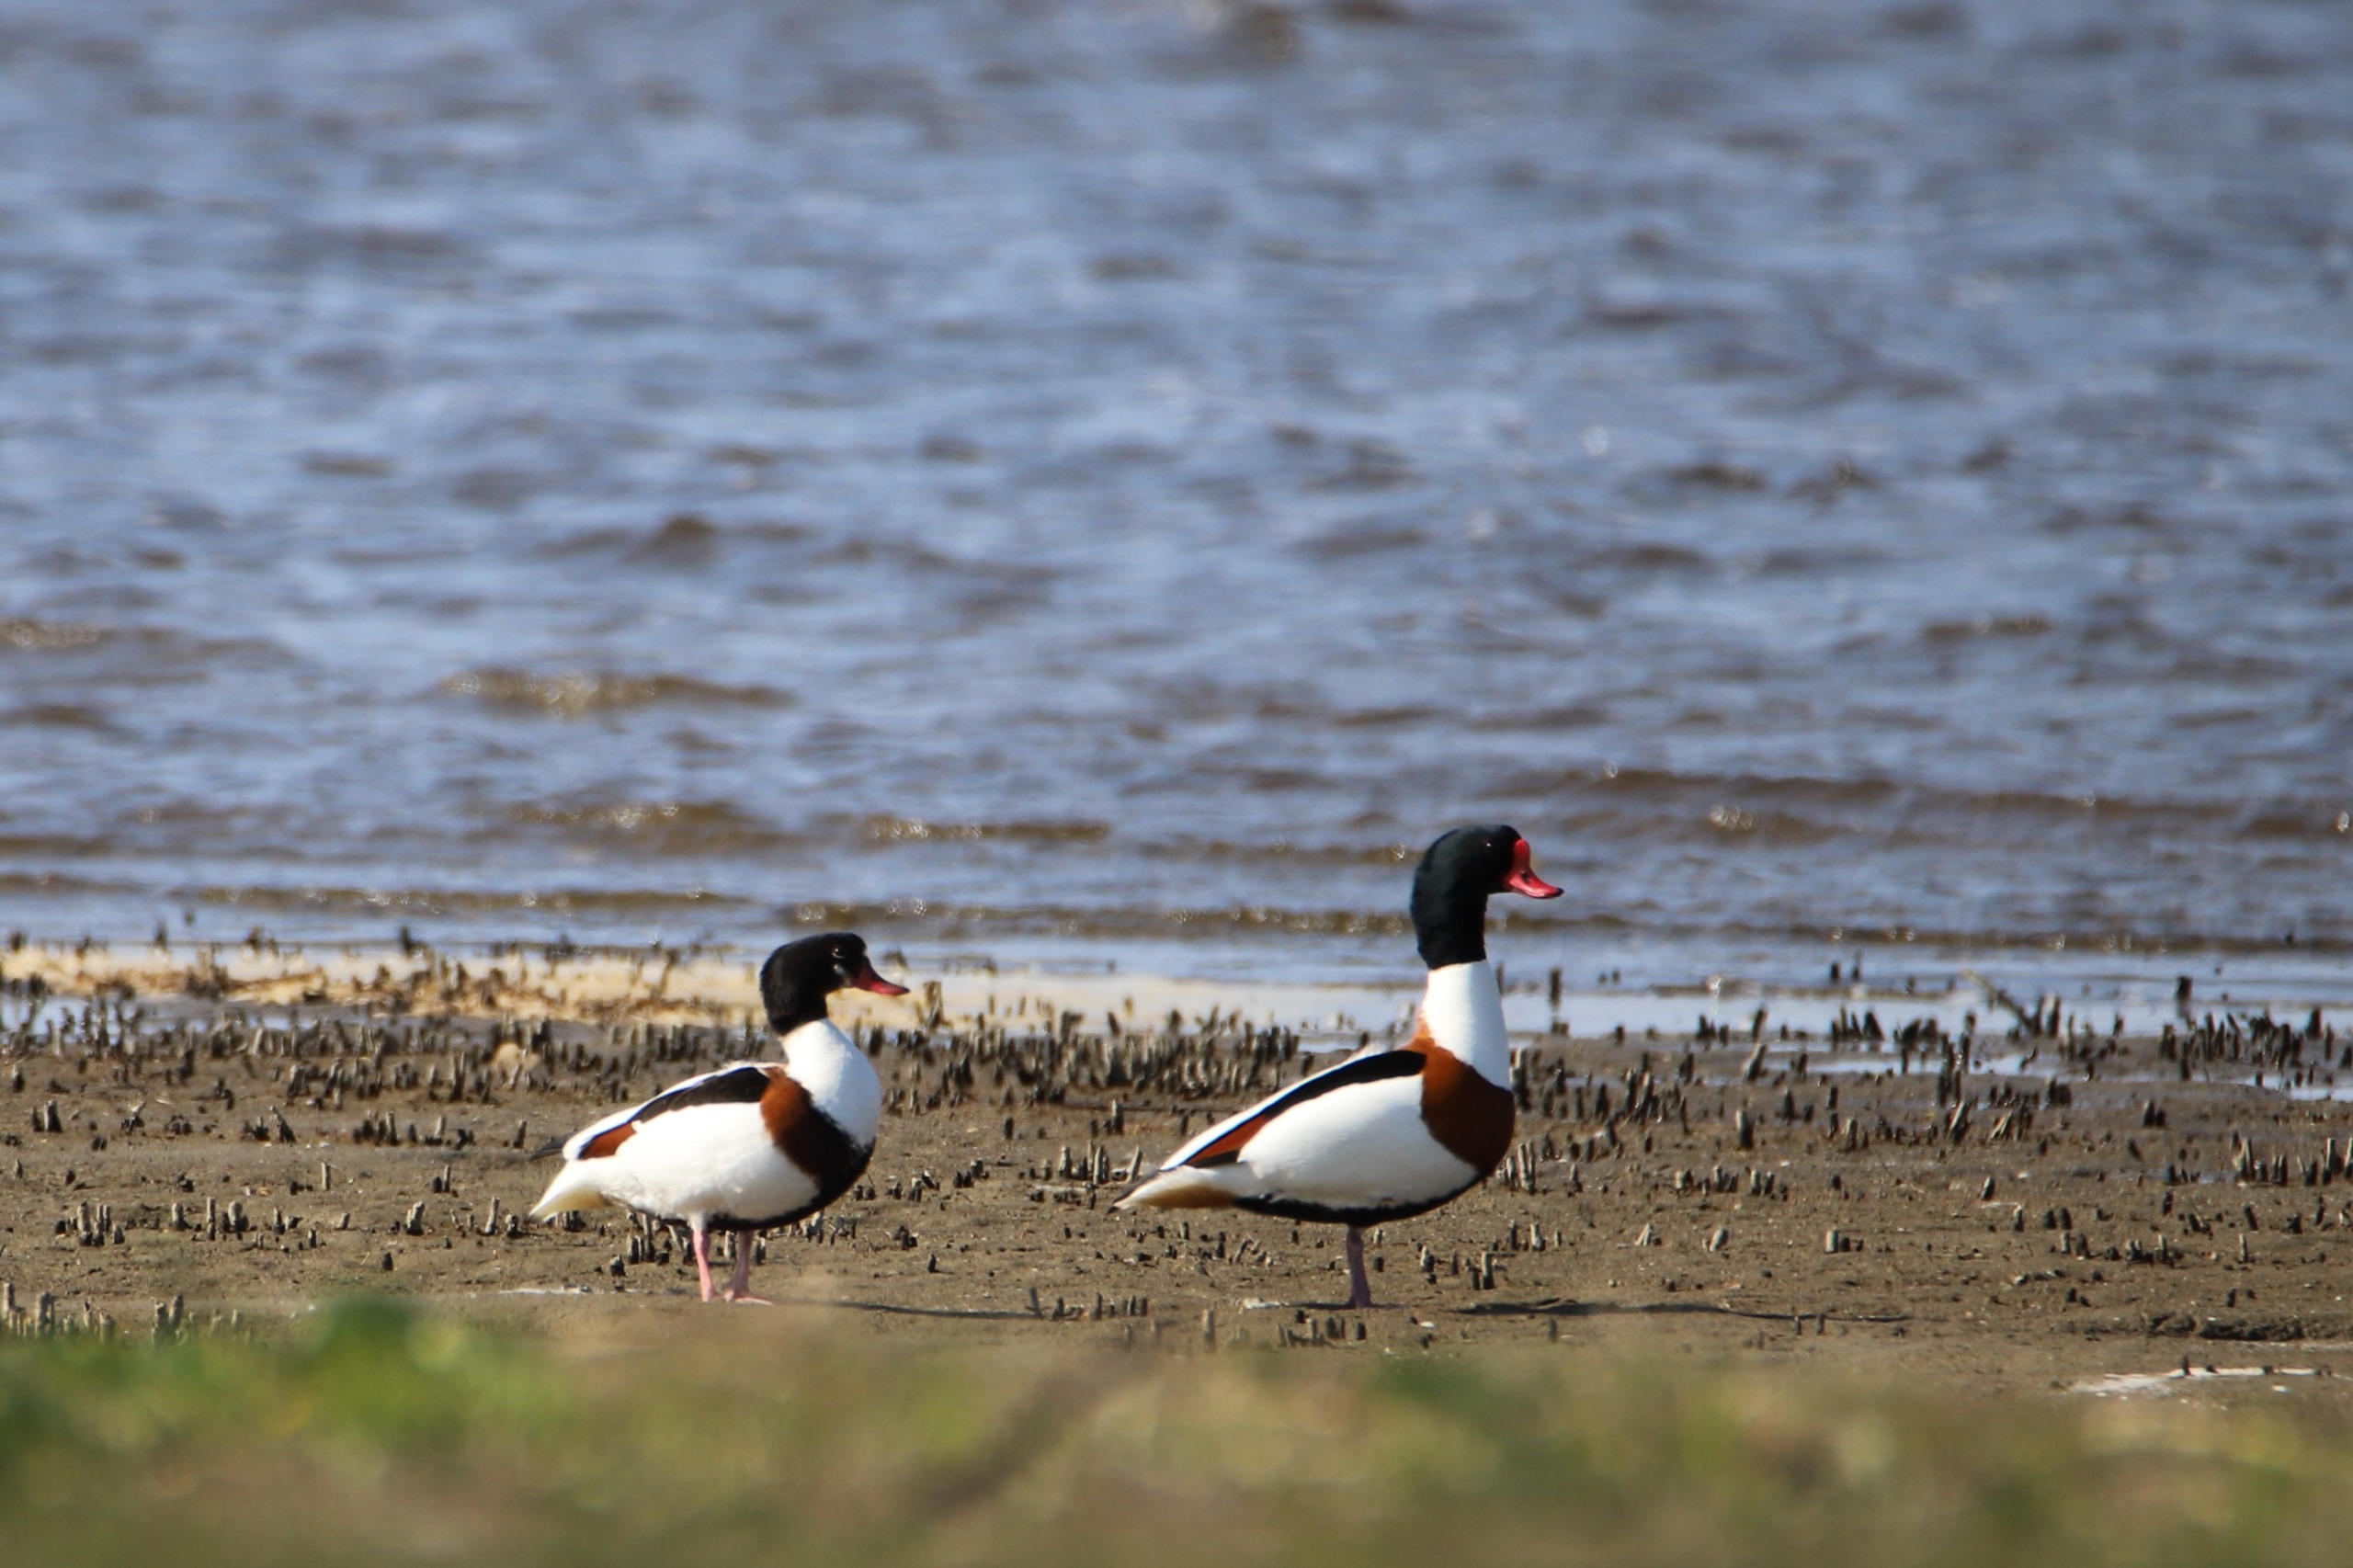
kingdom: Animalia
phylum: Chordata
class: Aves
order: Anseriformes
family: Anatidae
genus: Tadorna
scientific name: Tadorna tadorna
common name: Gravand
